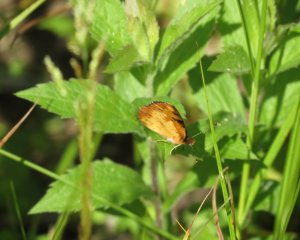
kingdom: Animalia
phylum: Arthropoda
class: Insecta
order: Lepidoptera
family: Nymphalidae
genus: Phyciodes
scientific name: Phyciodes tharos
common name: Northern Crescent
